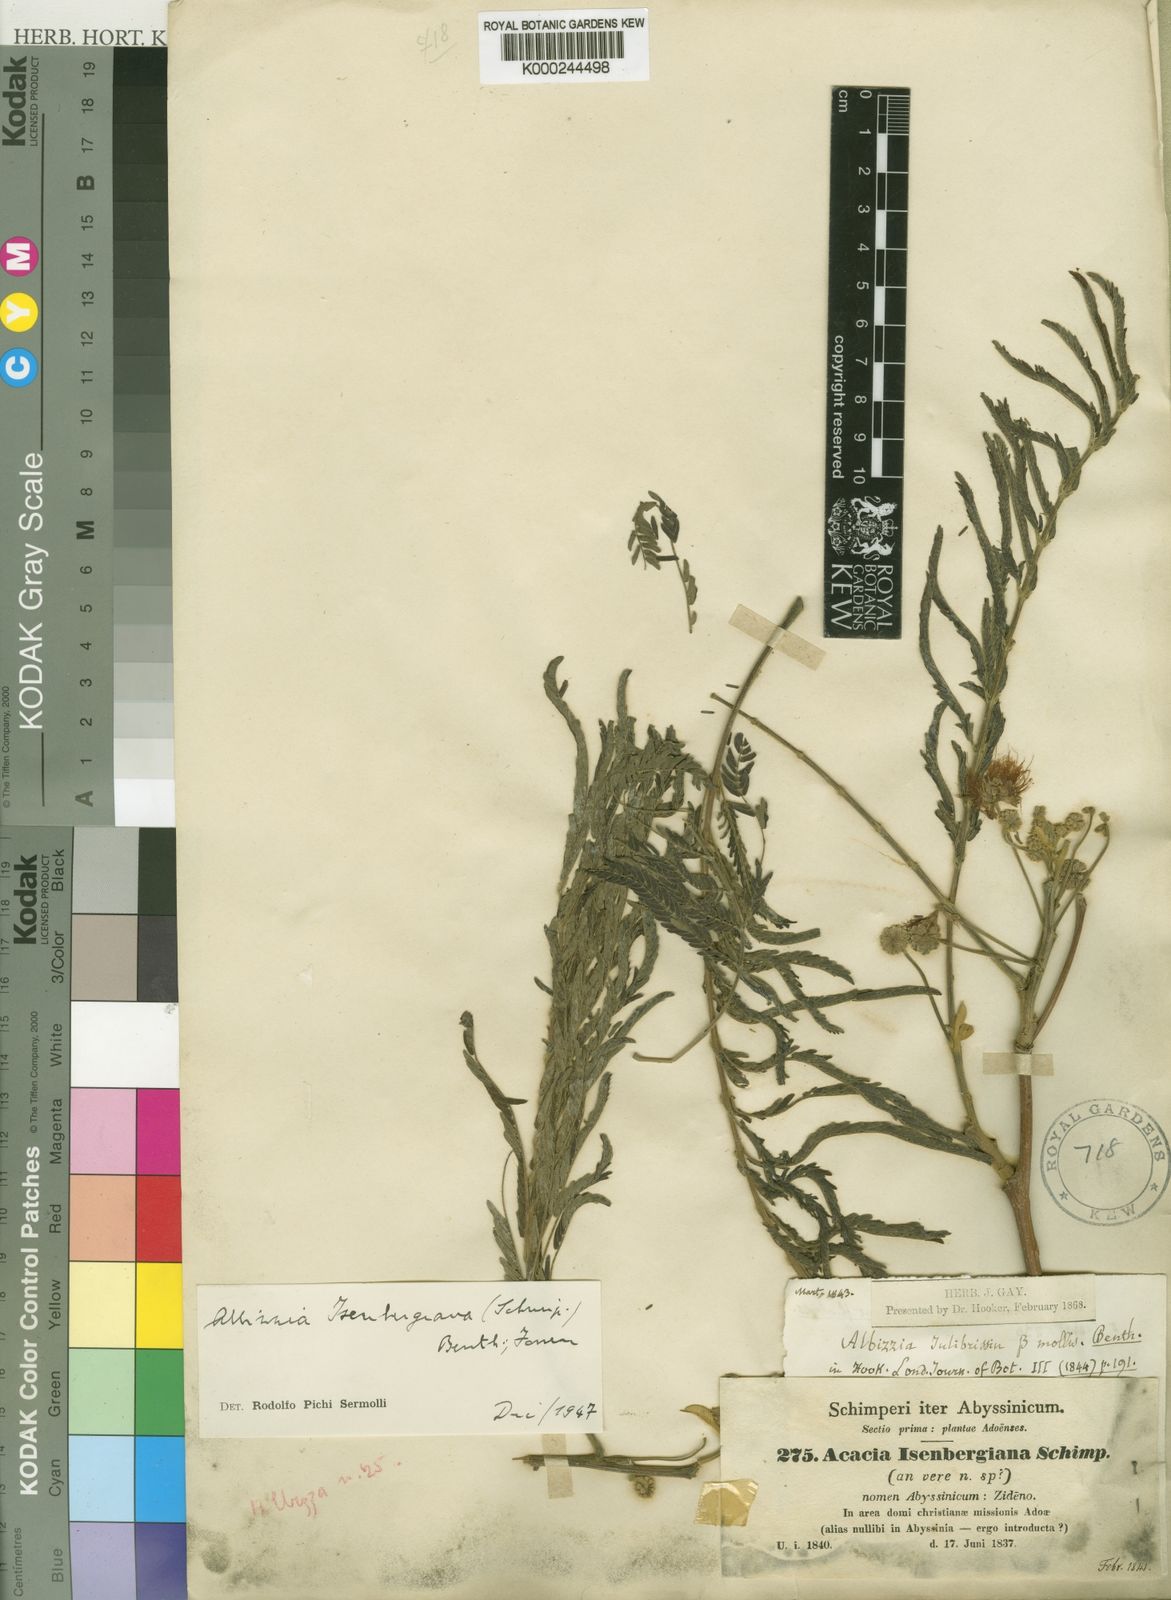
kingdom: Plantae
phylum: Tracheophyta
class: Magnoliopsida
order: Fabales
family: Fabaceae
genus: Albizia
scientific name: Albizia isenbergiana
